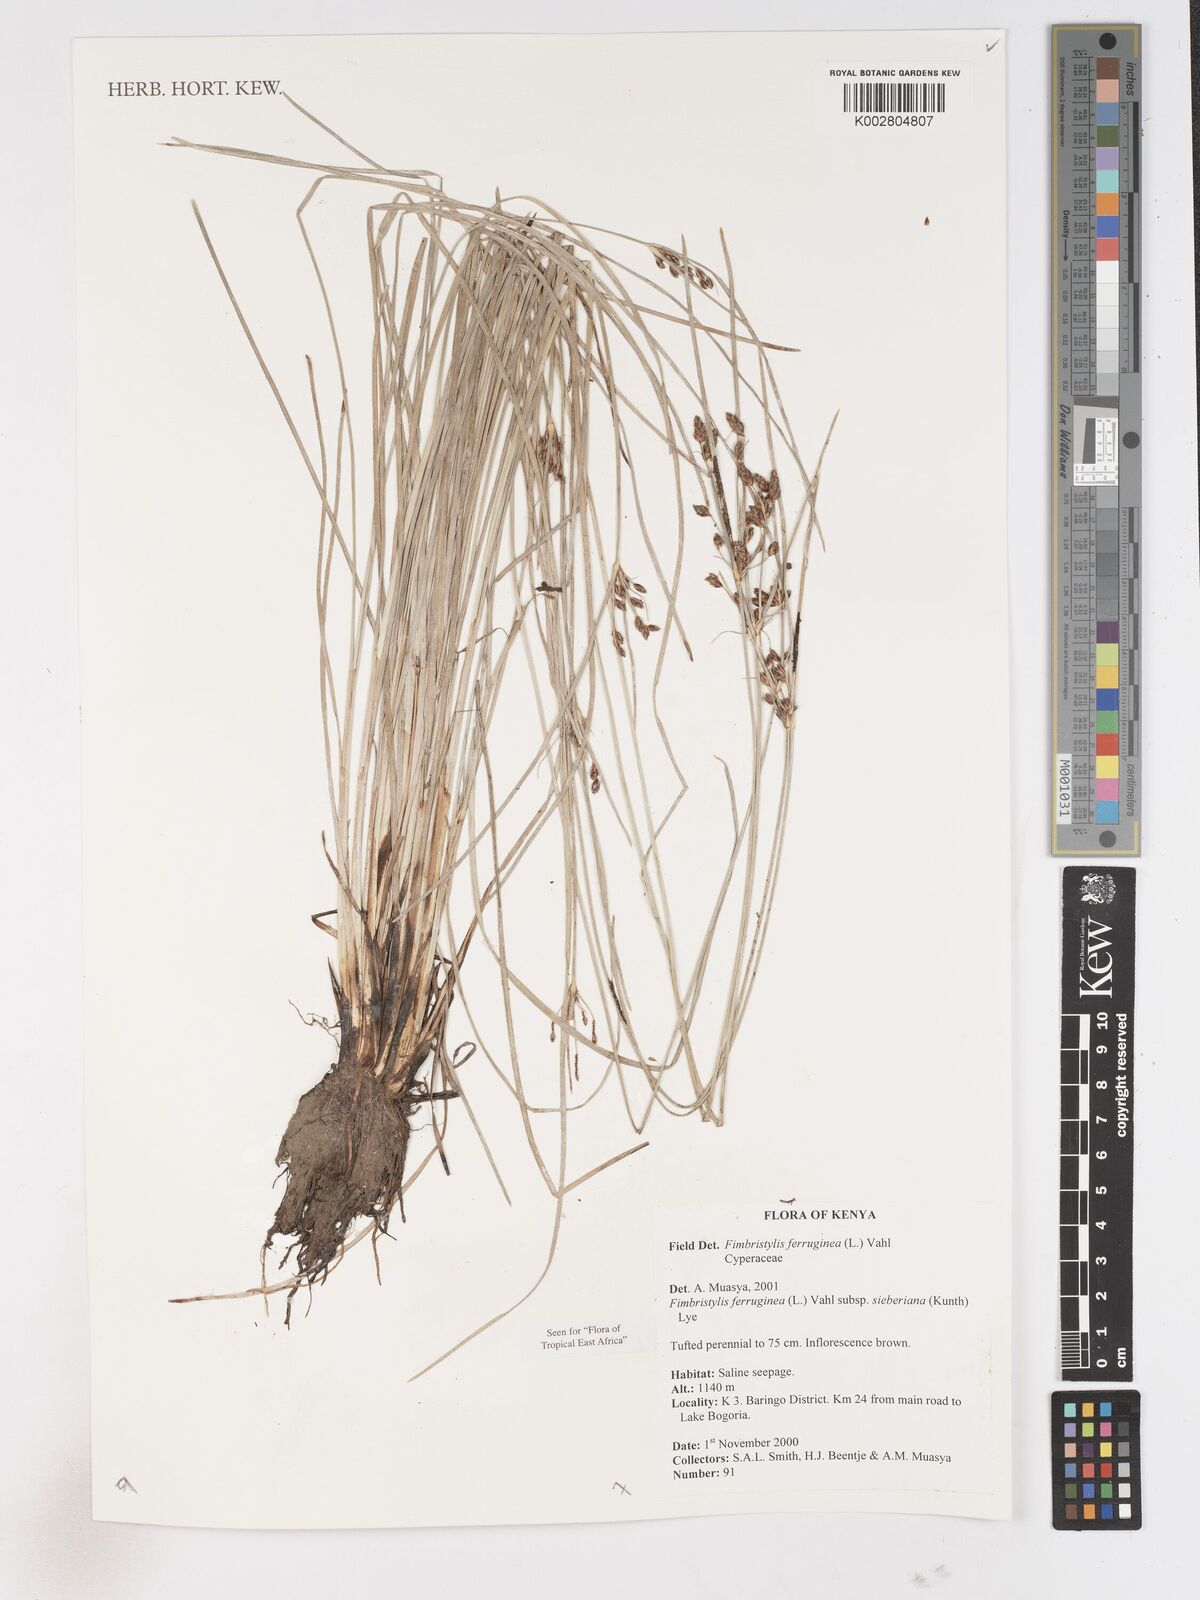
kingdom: Plantae
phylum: Tracheophyta
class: Liliopsida
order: Poales
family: Cyperaceae
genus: Fimbristylis
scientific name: Fimbristylis ferruginea
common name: West indian fimbry
